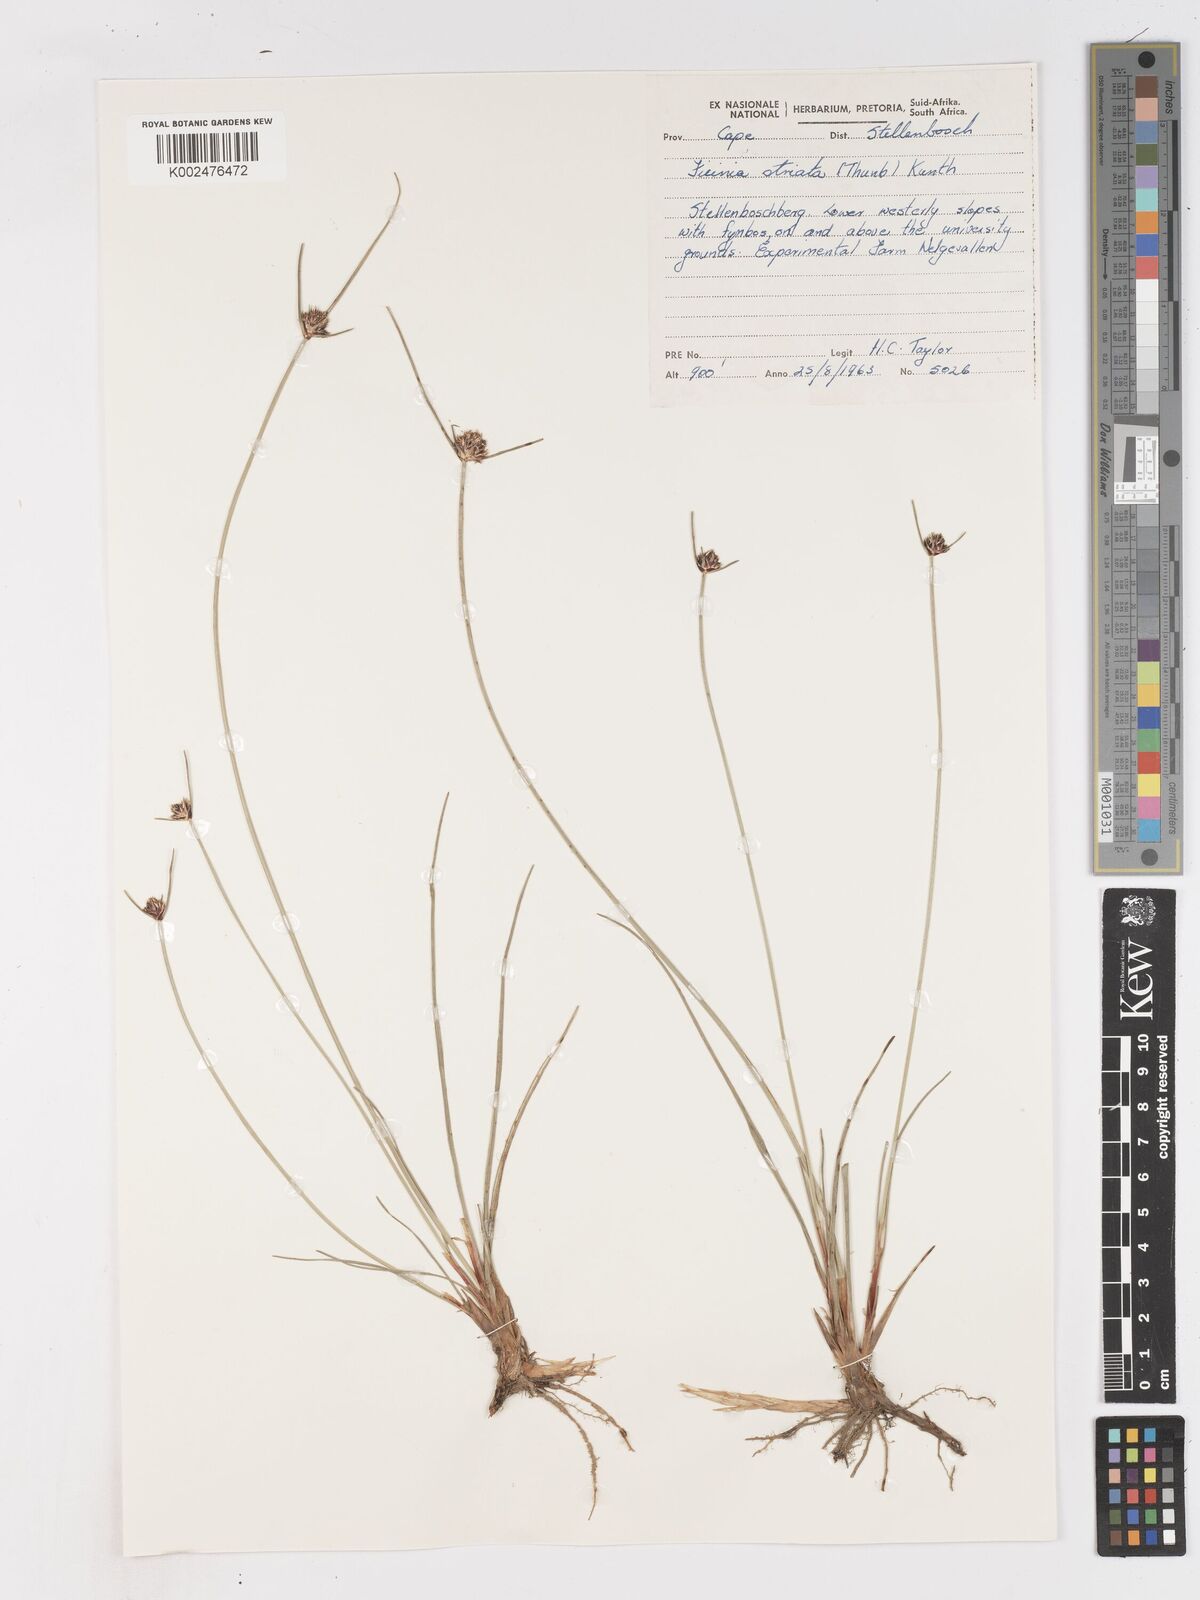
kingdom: Plantae
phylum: Tracheophyta
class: Liliopsida
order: Poales
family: Cyperaceae
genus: Ficinia
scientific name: Ficinia indica
